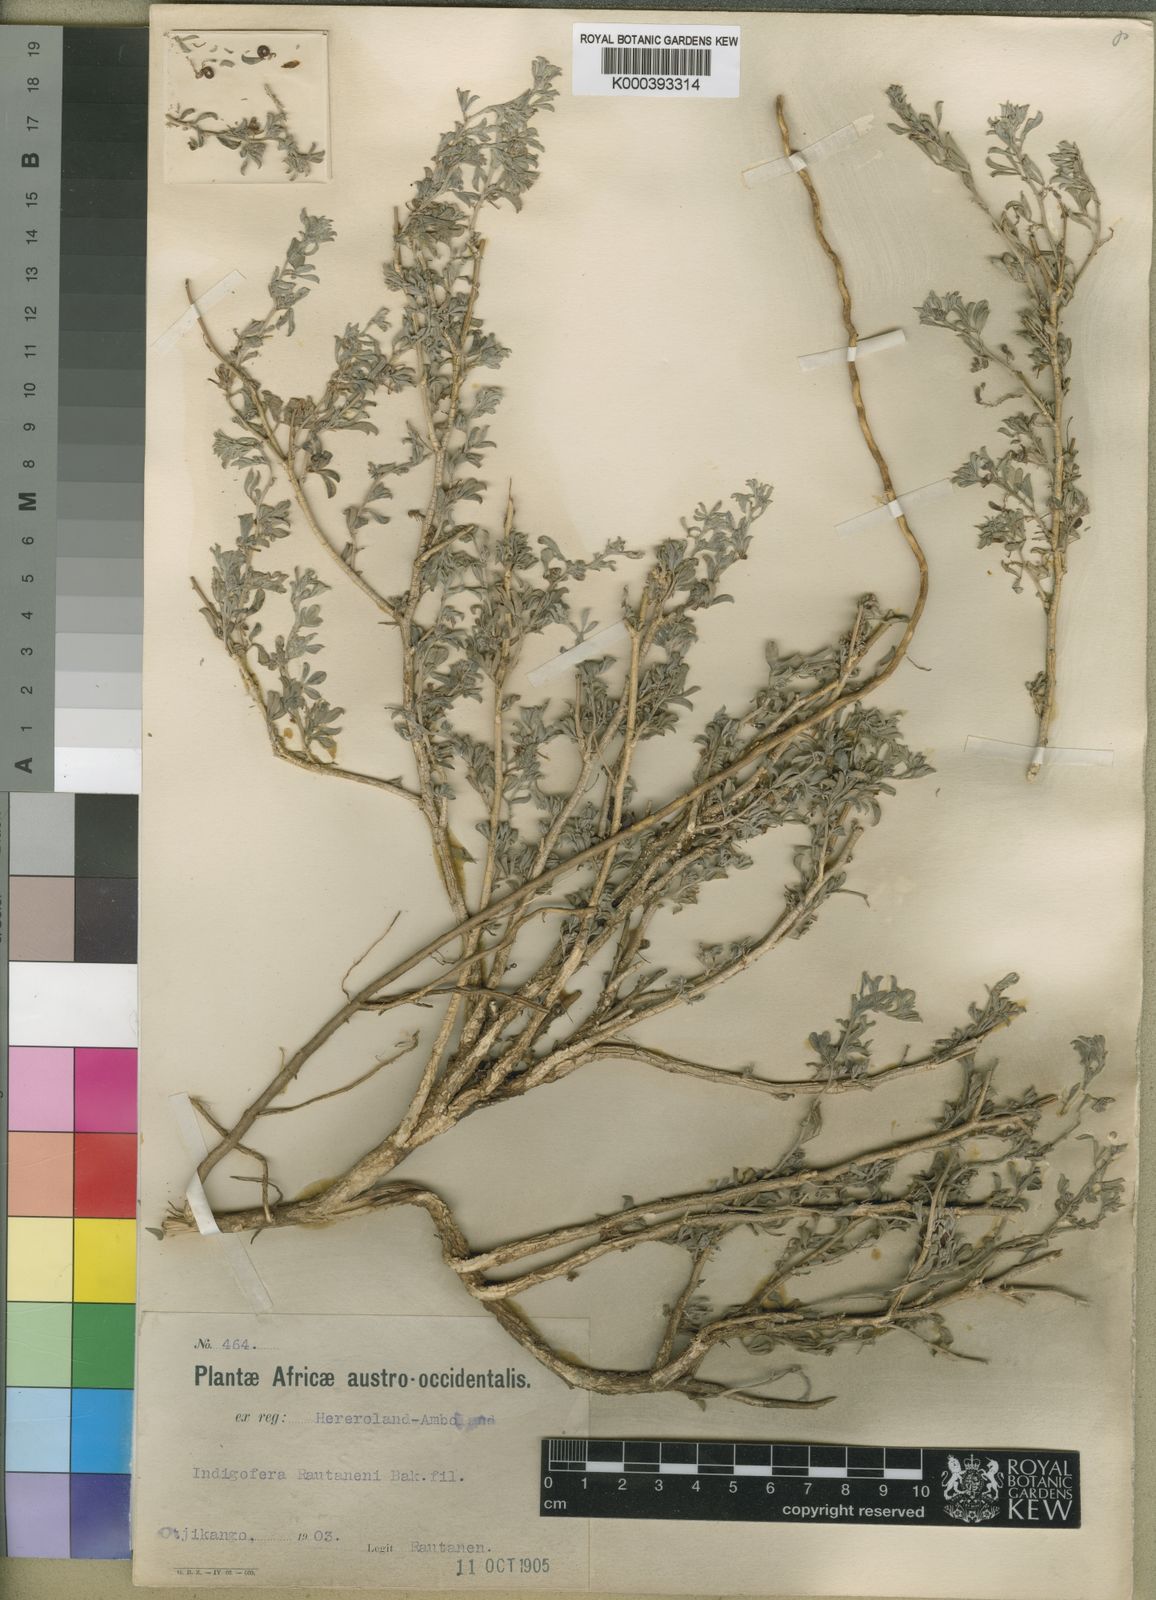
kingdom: Plantae
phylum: Tracheophyta
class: Magnoliopsida
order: Fabales
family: Fabaceae
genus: Indigofera
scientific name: Indigofera rautanenii
